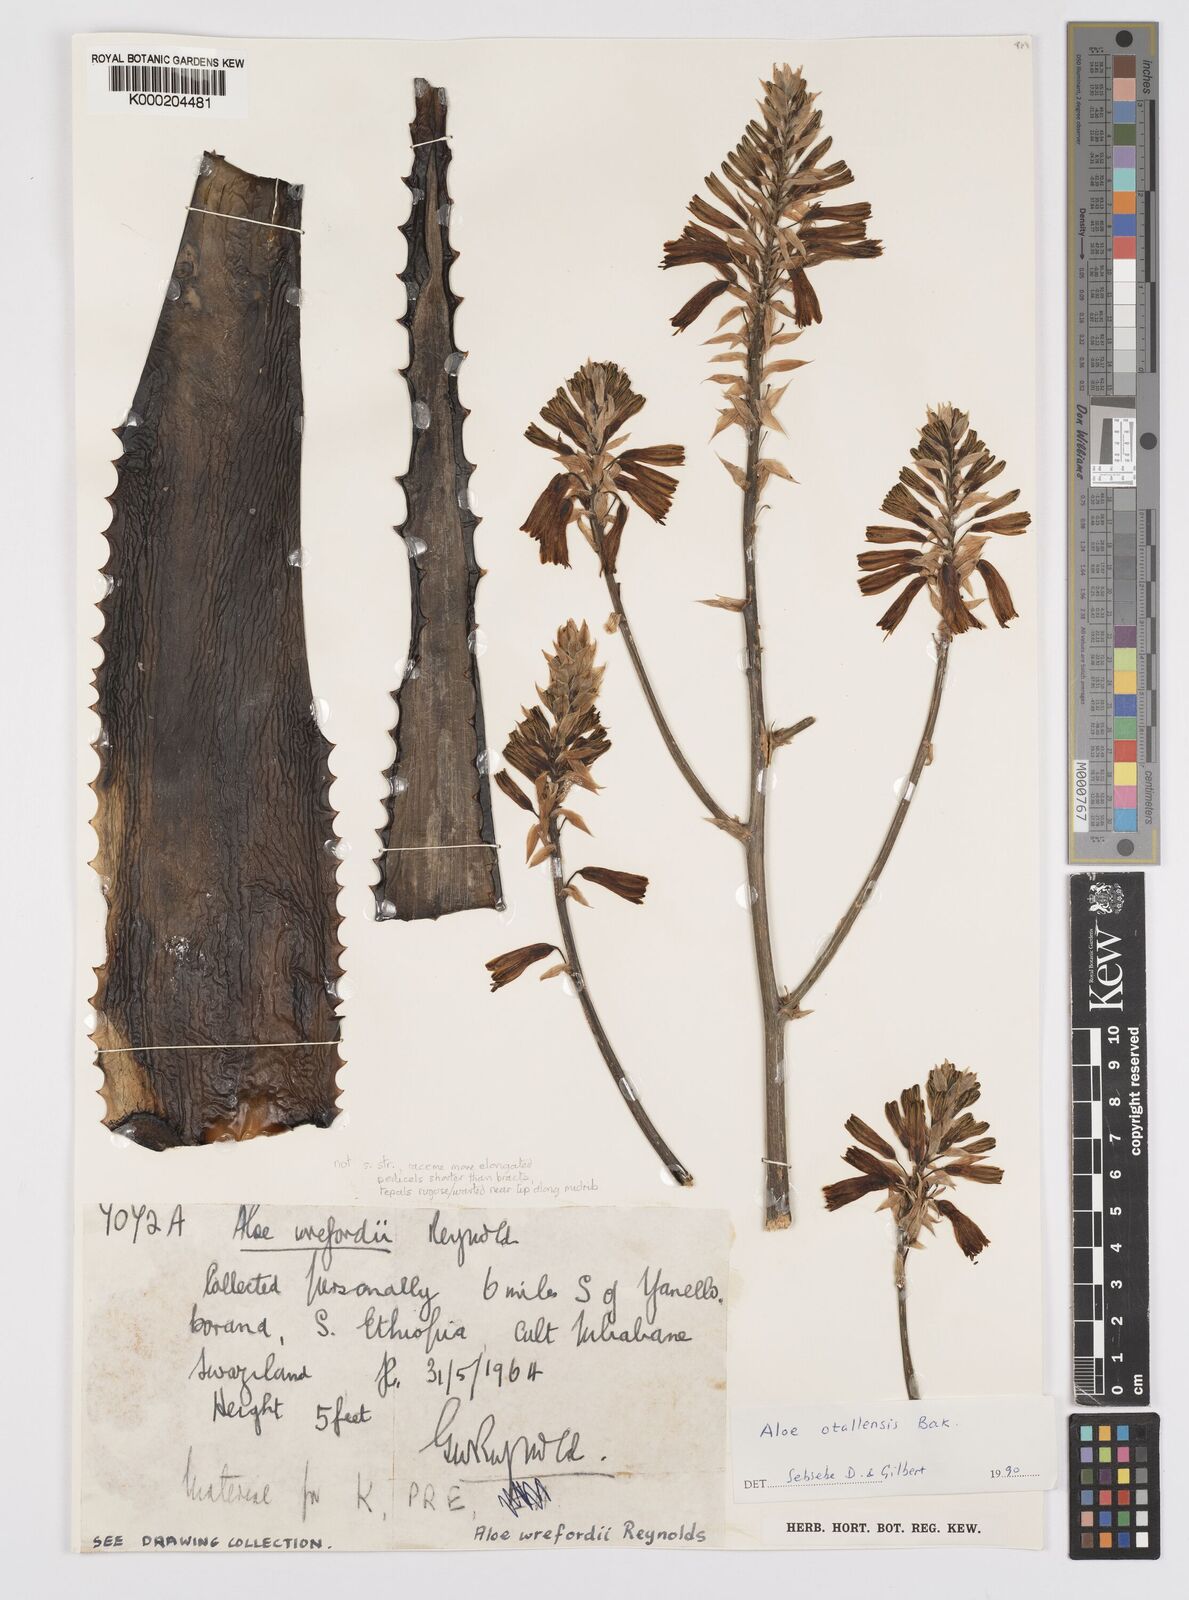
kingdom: Plantae
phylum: Tracheophyta
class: Liliopsida
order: Asparagales
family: Asphodelaceae
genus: Aloe
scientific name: Aloe otallensis
